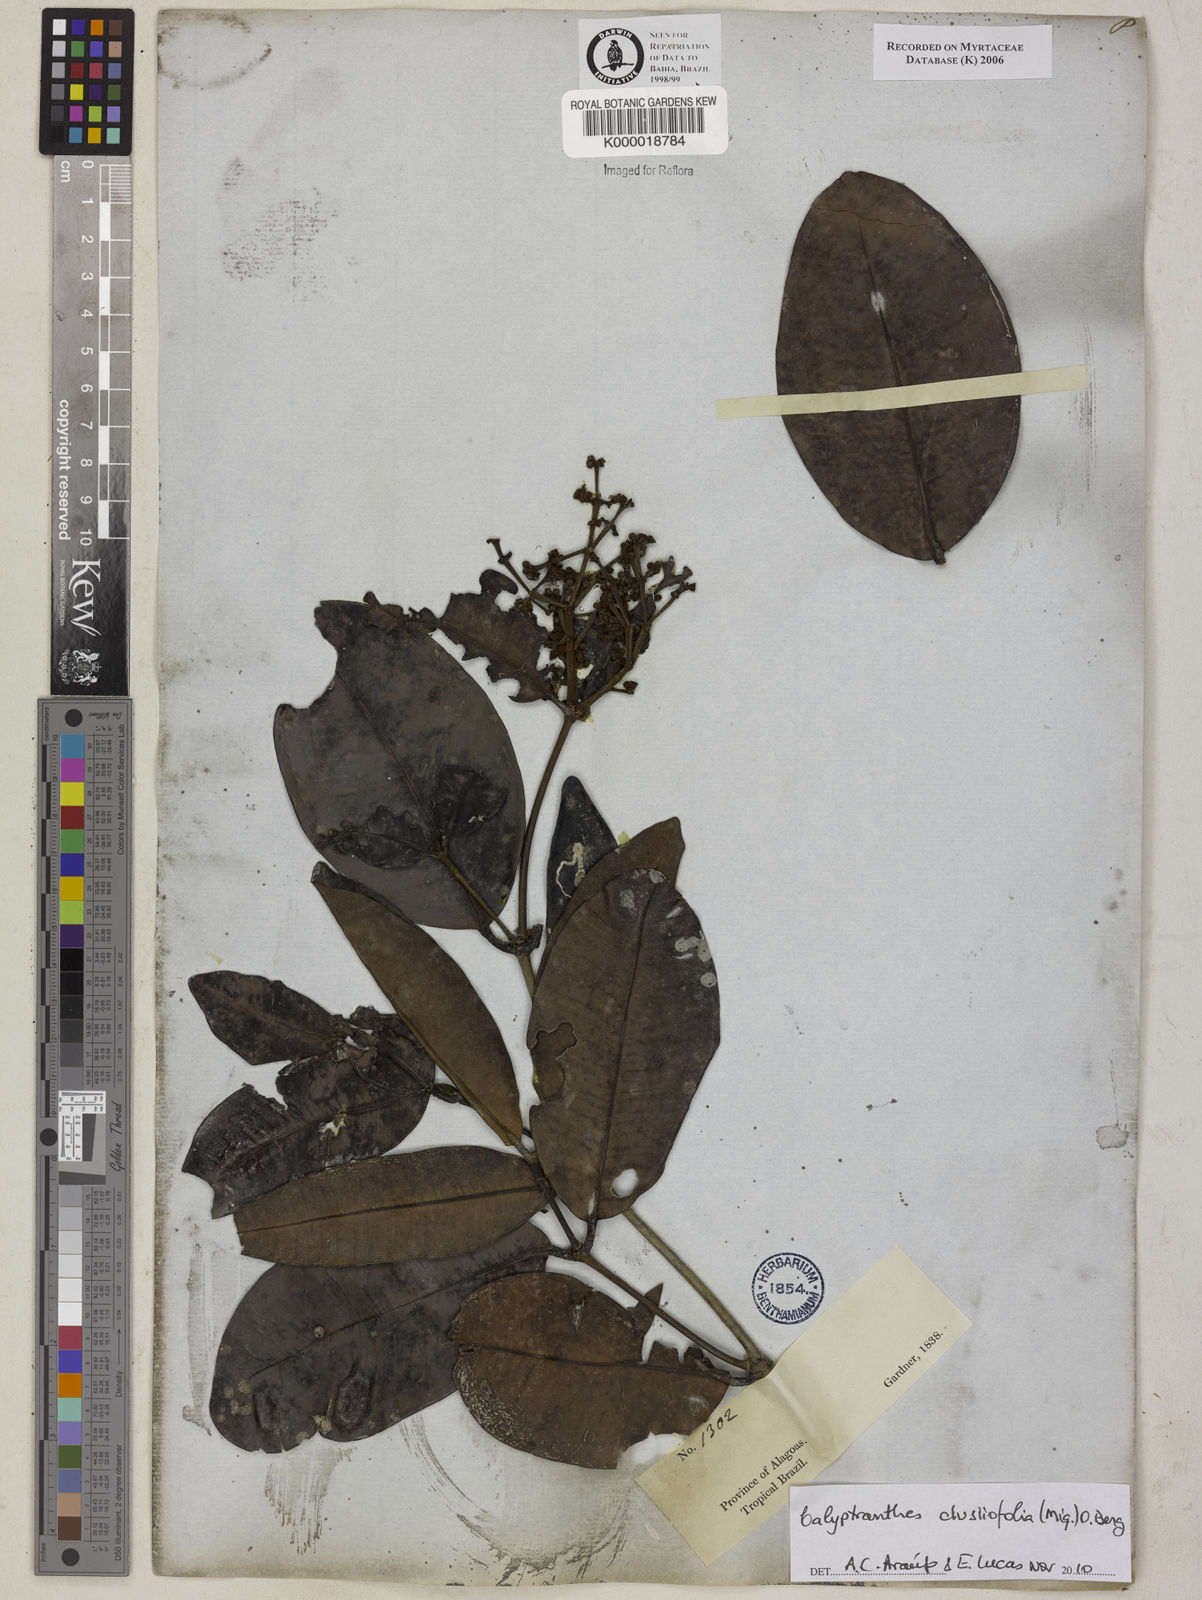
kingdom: Plantae
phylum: Tracheophyta
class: Magnoliopsida
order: Myrtales
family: Myrtaceae
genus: Calyptranthes
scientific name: Calyptranthes
